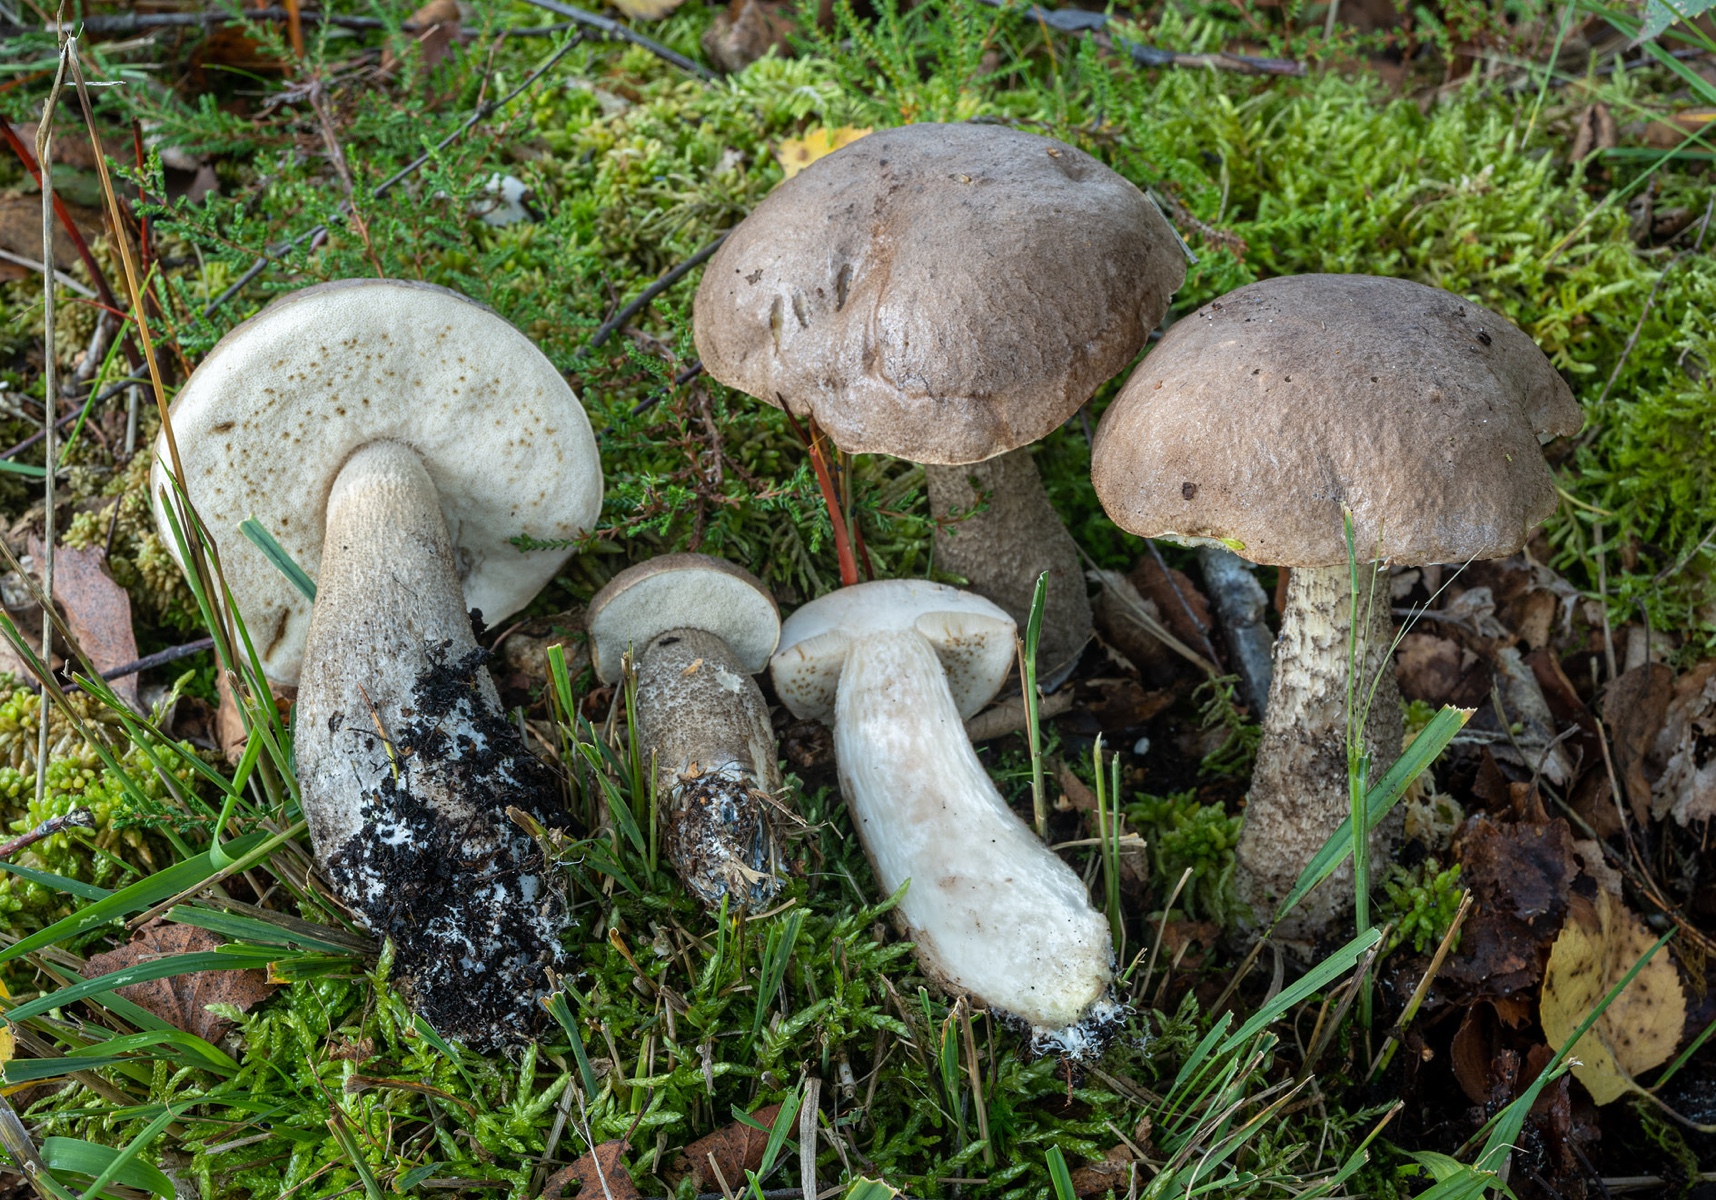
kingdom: Fungi
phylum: Basidiomycota
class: Agaricomycetes
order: Boletales
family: Boletaceae
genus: Leccinum
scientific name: Leccinum cyaneobasileucum
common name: almindelig skælrørhat
